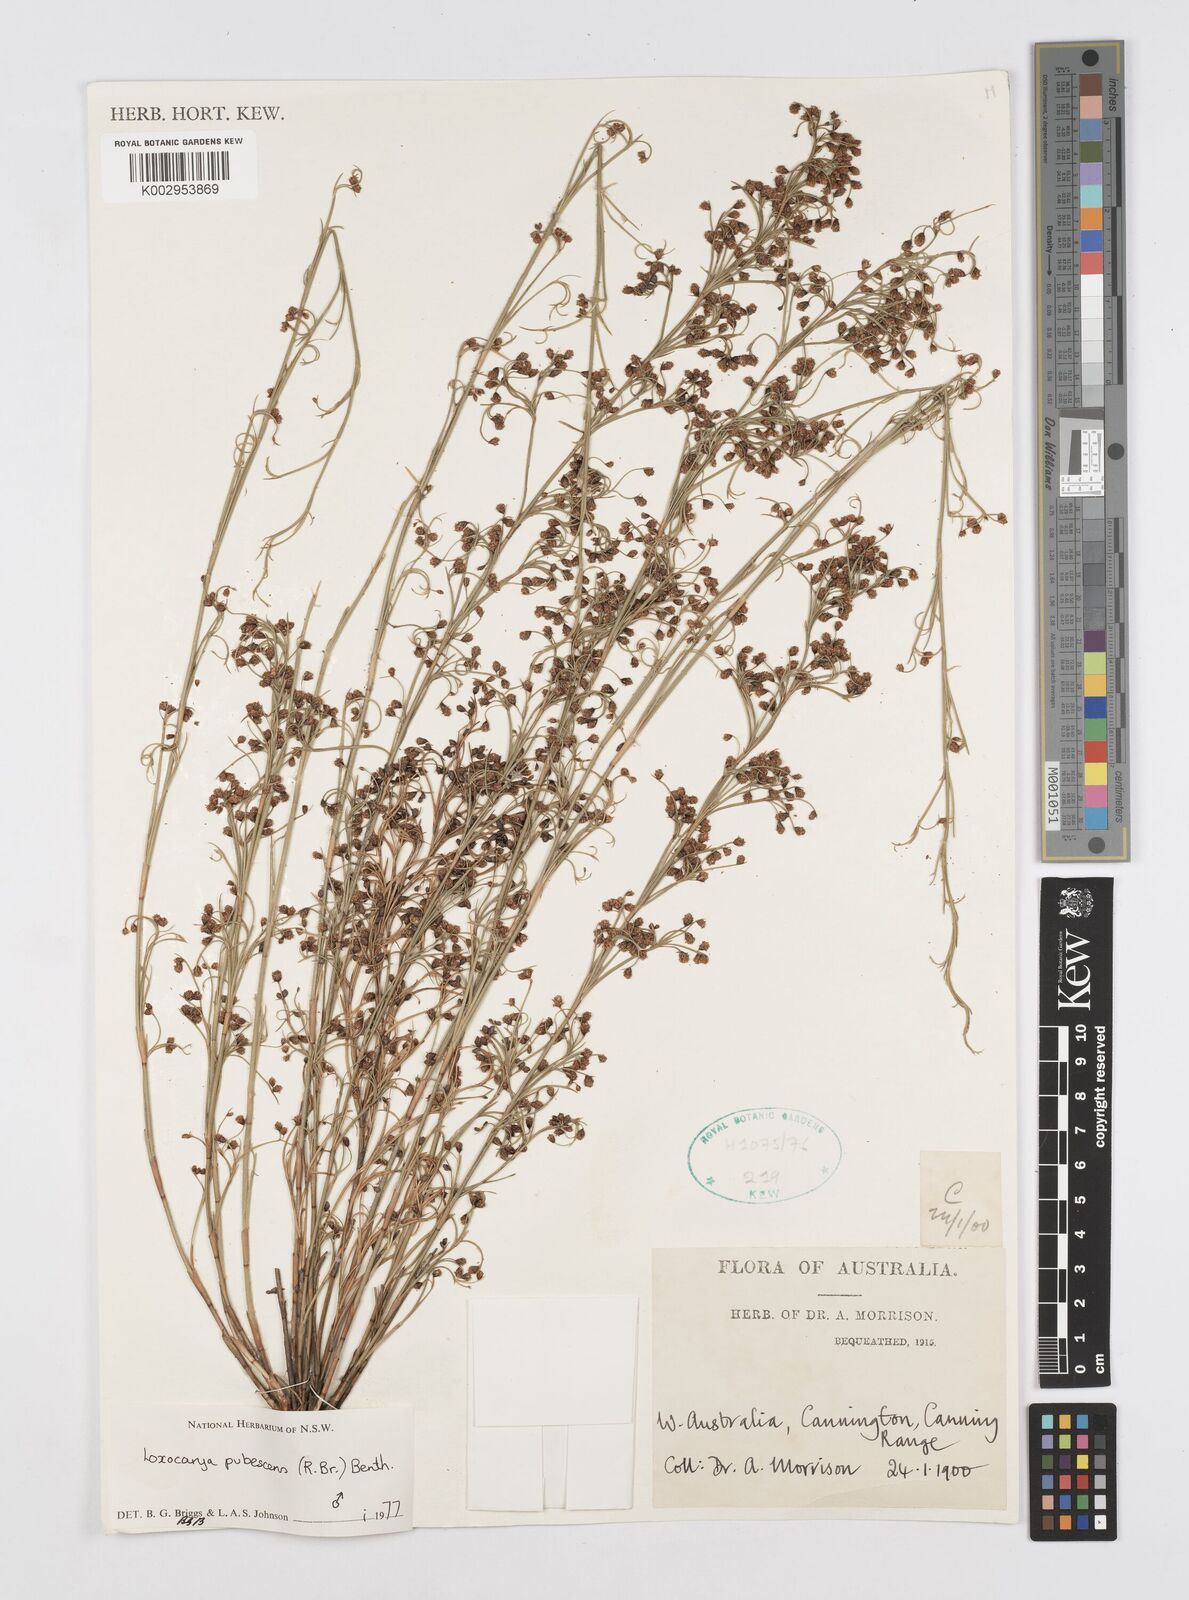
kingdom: Plantae
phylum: Tracheophyta
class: Liliopsida
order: Poales
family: Restionaceae
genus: Hypolaena
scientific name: Hypolaena pubescens
